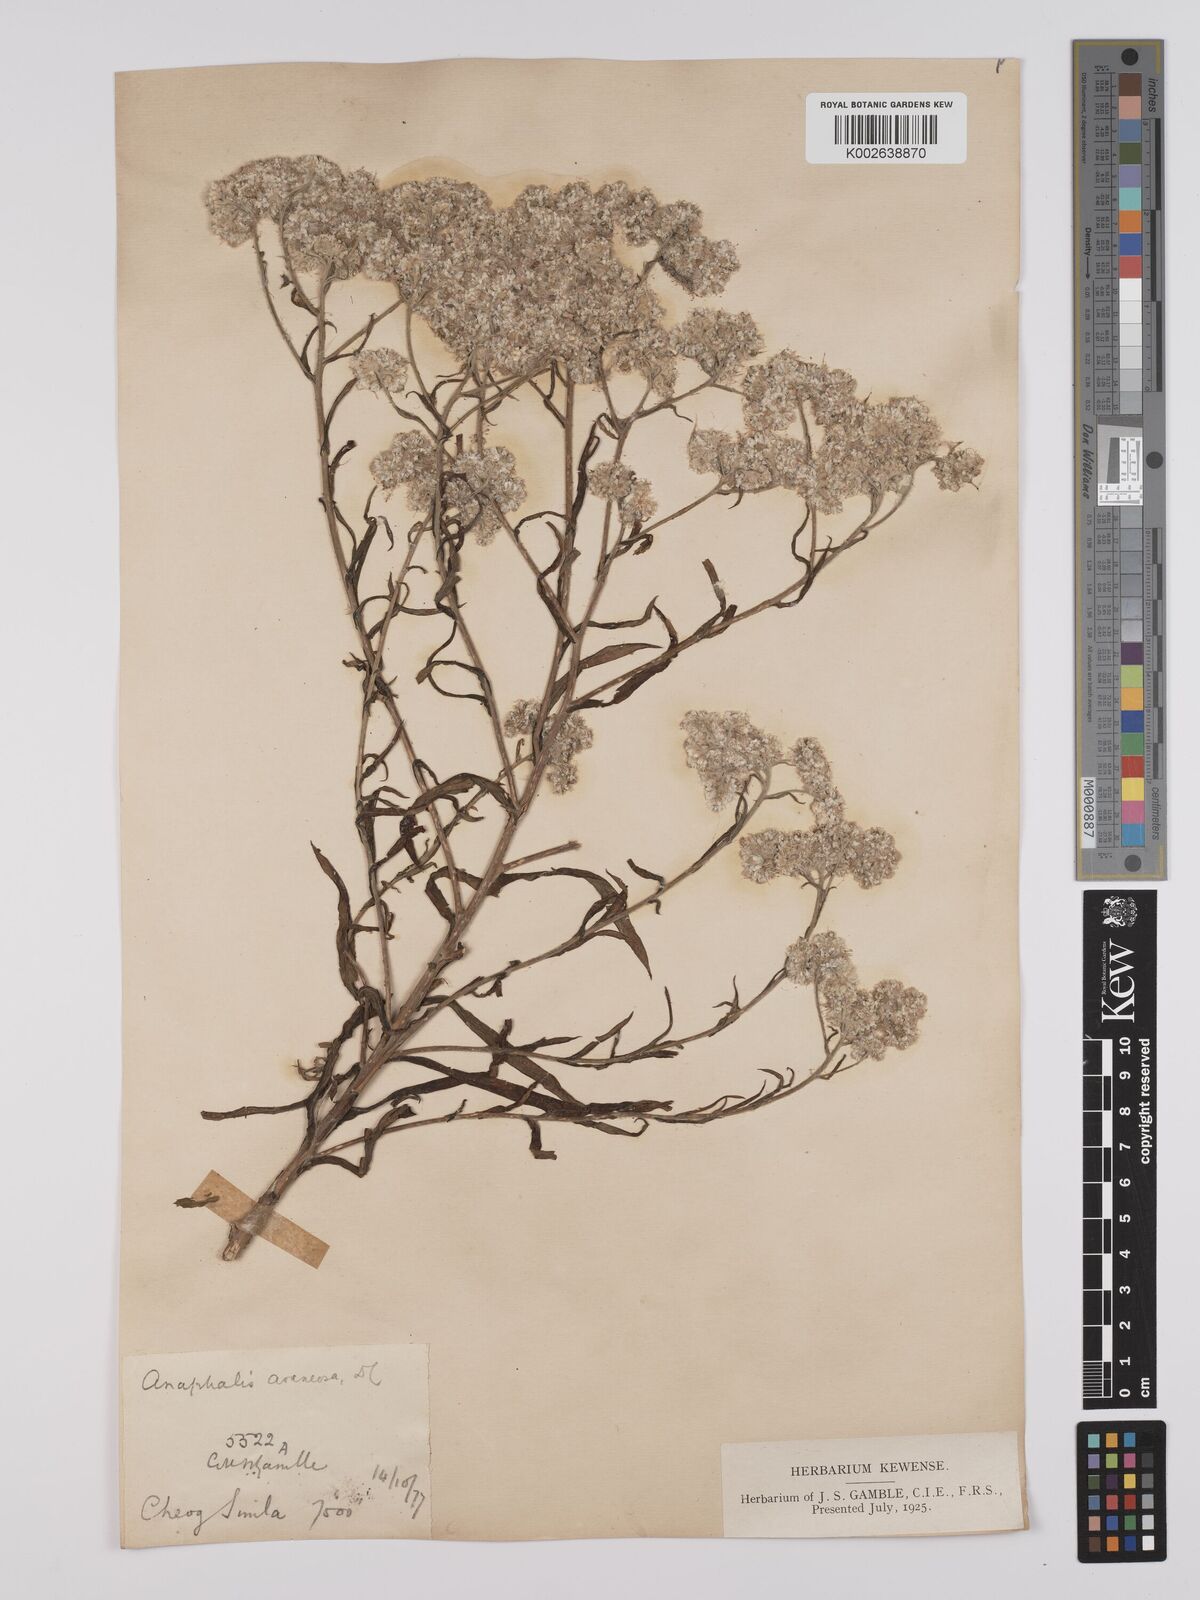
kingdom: Plantae
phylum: Tracheophyta
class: Magnoliopsida
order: Asterales
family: Asteraceae
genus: Anaphalis
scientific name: Anaphalis busua
